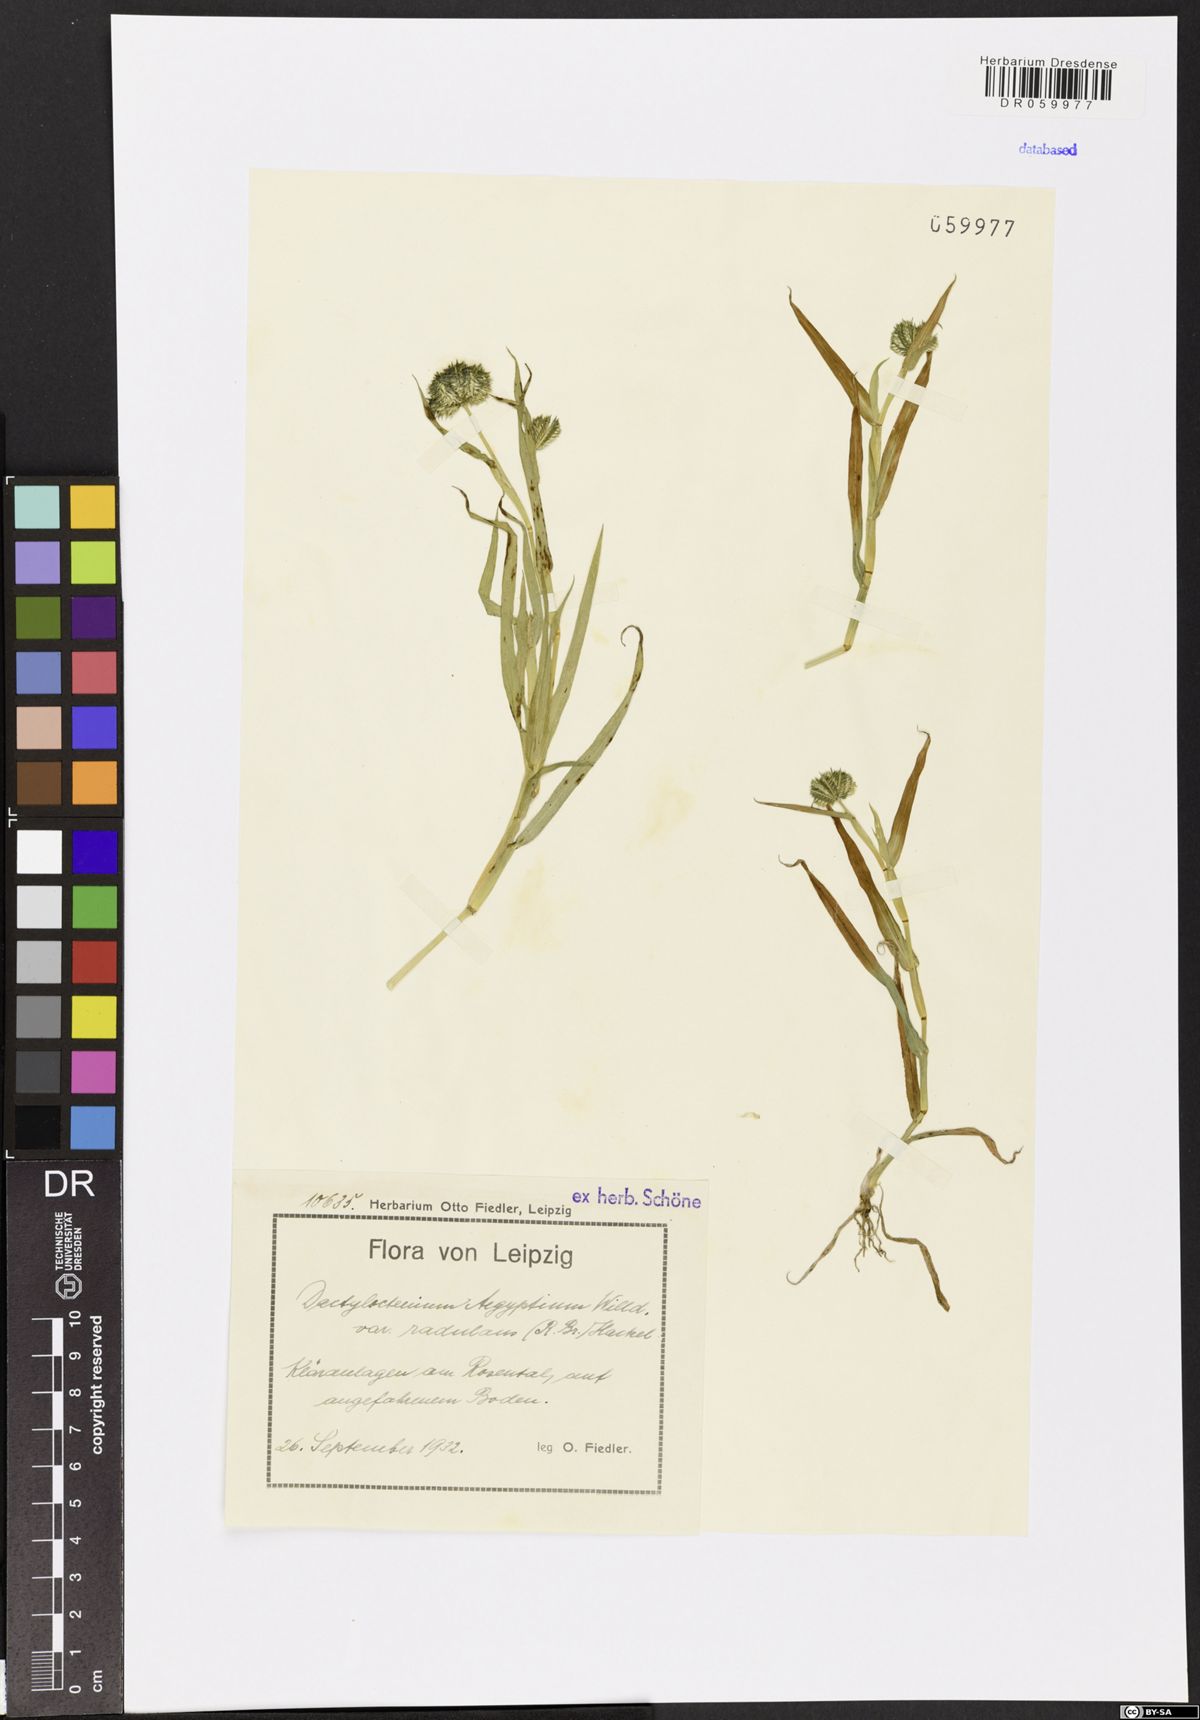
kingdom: Plantae
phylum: Tracheophyta
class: Liliopsida
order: Poales
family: Poaceae
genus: Dactyloctenium
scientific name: Dactyloctenium aegyptium
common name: Egyptian grass
